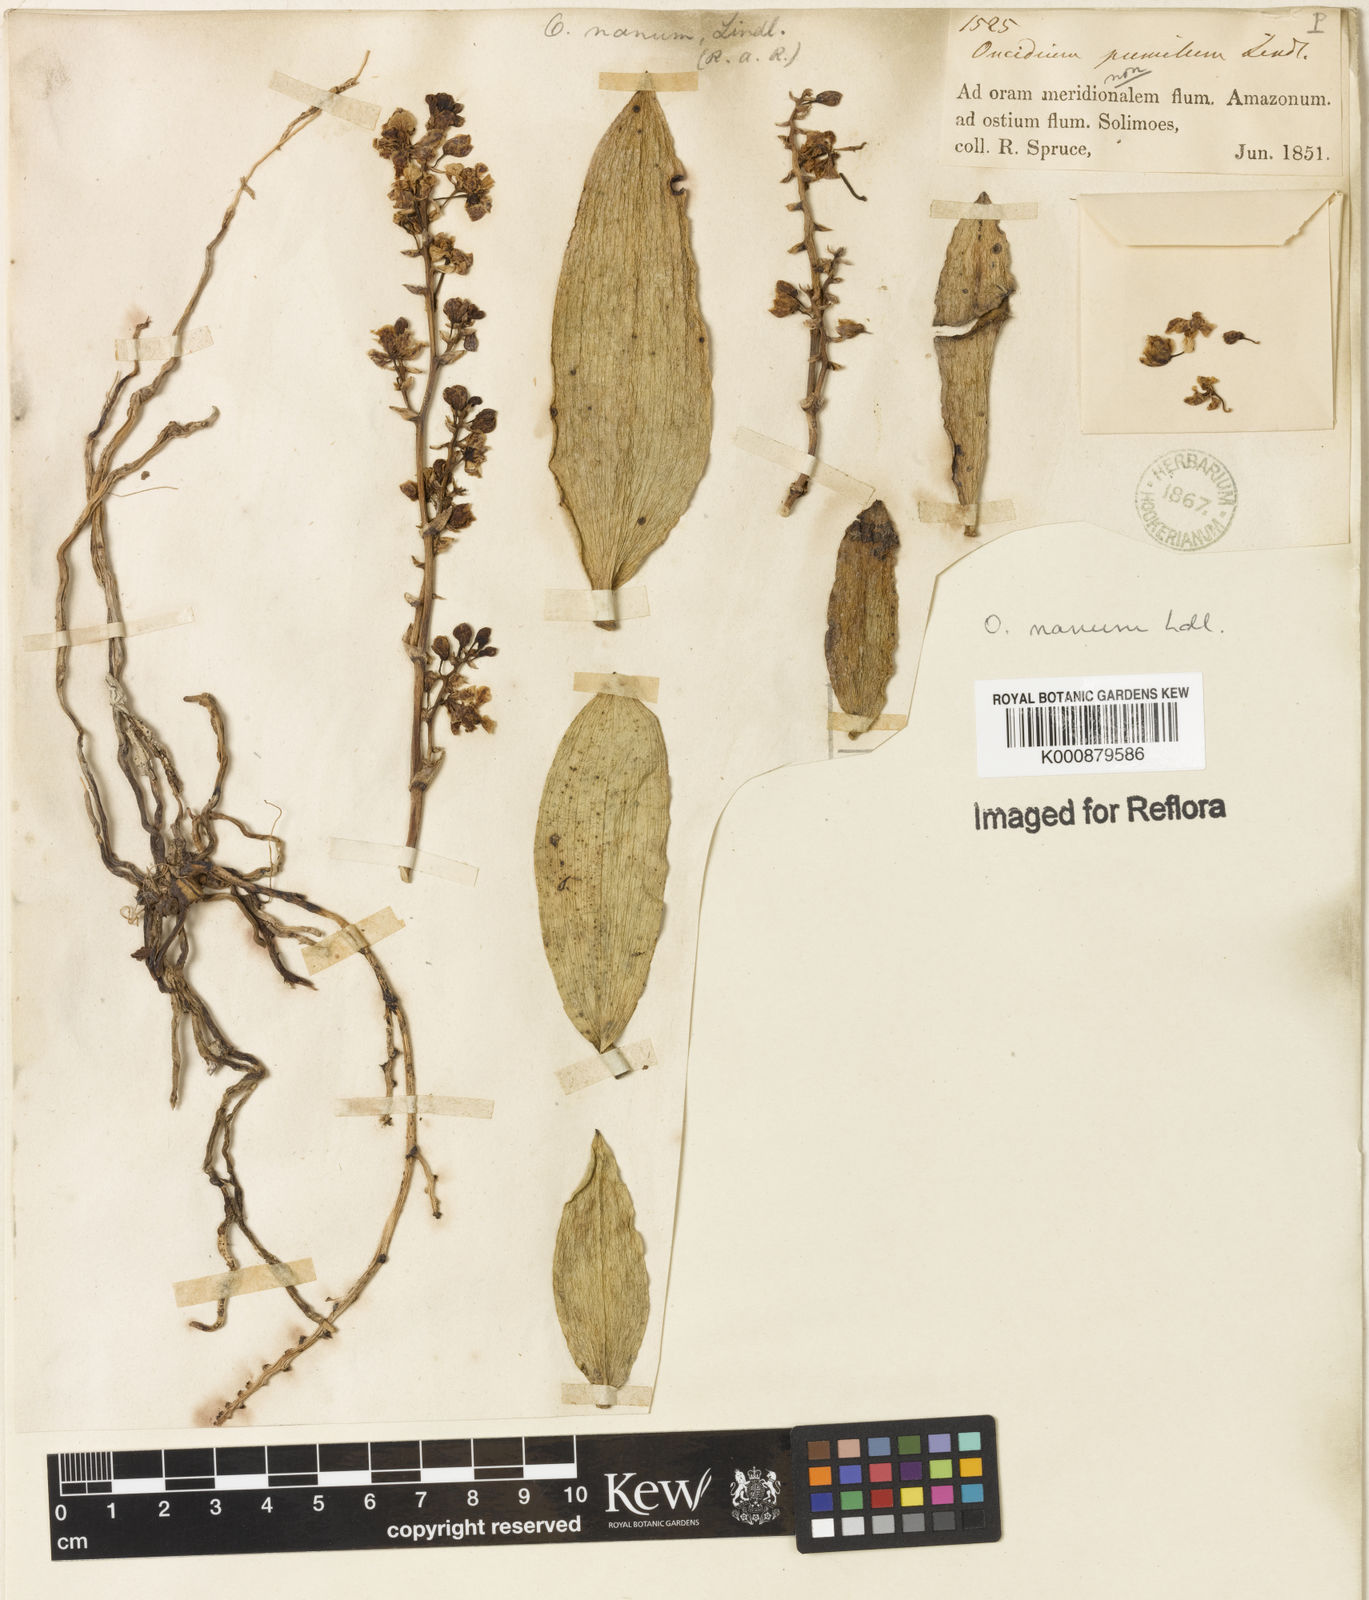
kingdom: Plantae
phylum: Tracheophyta
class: Liliopsida
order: Asparagales
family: Orchidaceae
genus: Trichocentrum
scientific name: Trichocentrum nanum
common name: Mule-ear orchid
